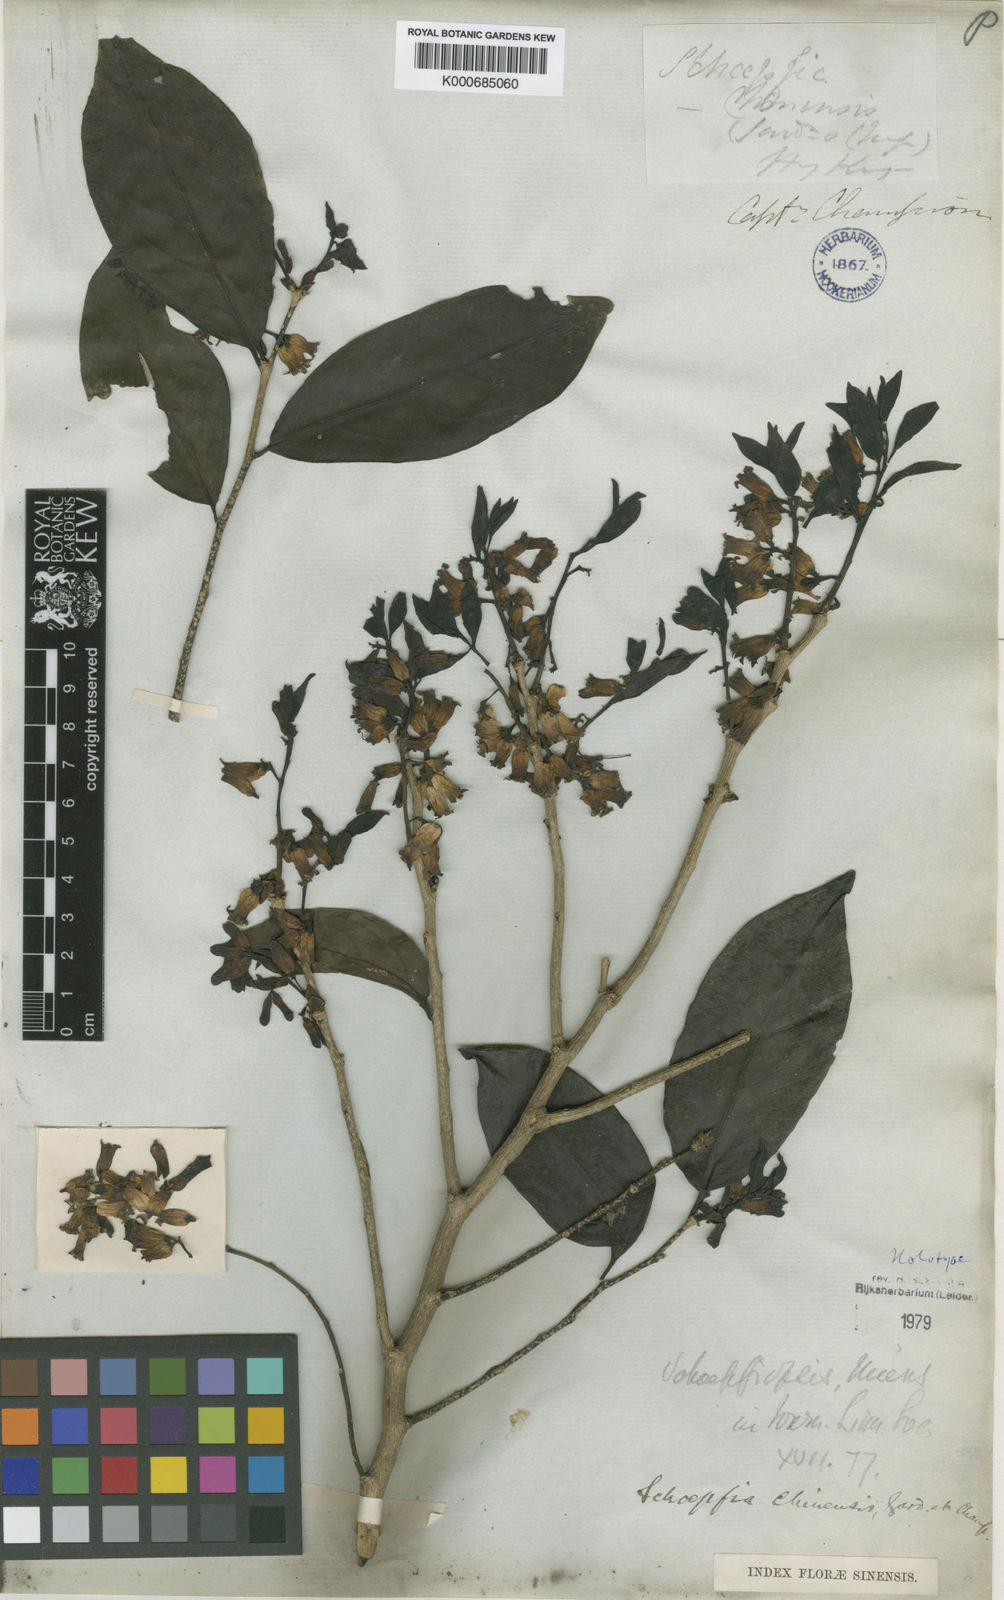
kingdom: Plantae
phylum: Tracheophyta
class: Magnoliopsida
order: Santalales
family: Schoepfiaceae
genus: Schoepfia
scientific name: Schoepfia chinensis
